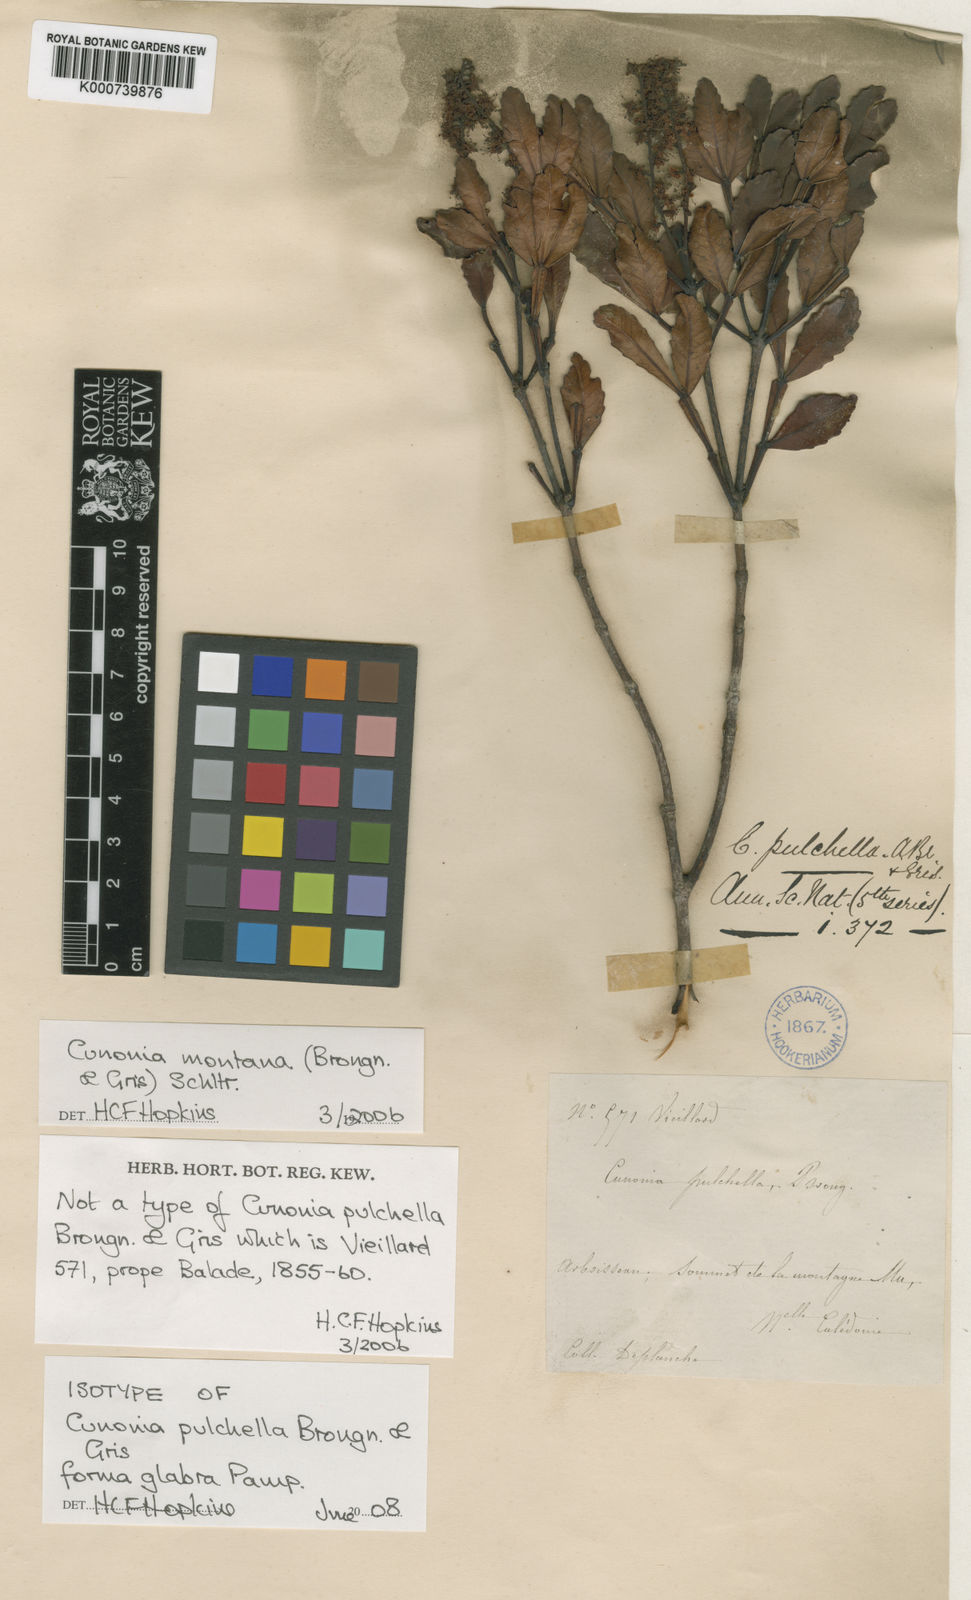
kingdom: Plantae
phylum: Tracheophyta
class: Magnoliopsida
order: Oxalidales
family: Cunoniaceae
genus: Cunonia
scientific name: Cunonia montana
